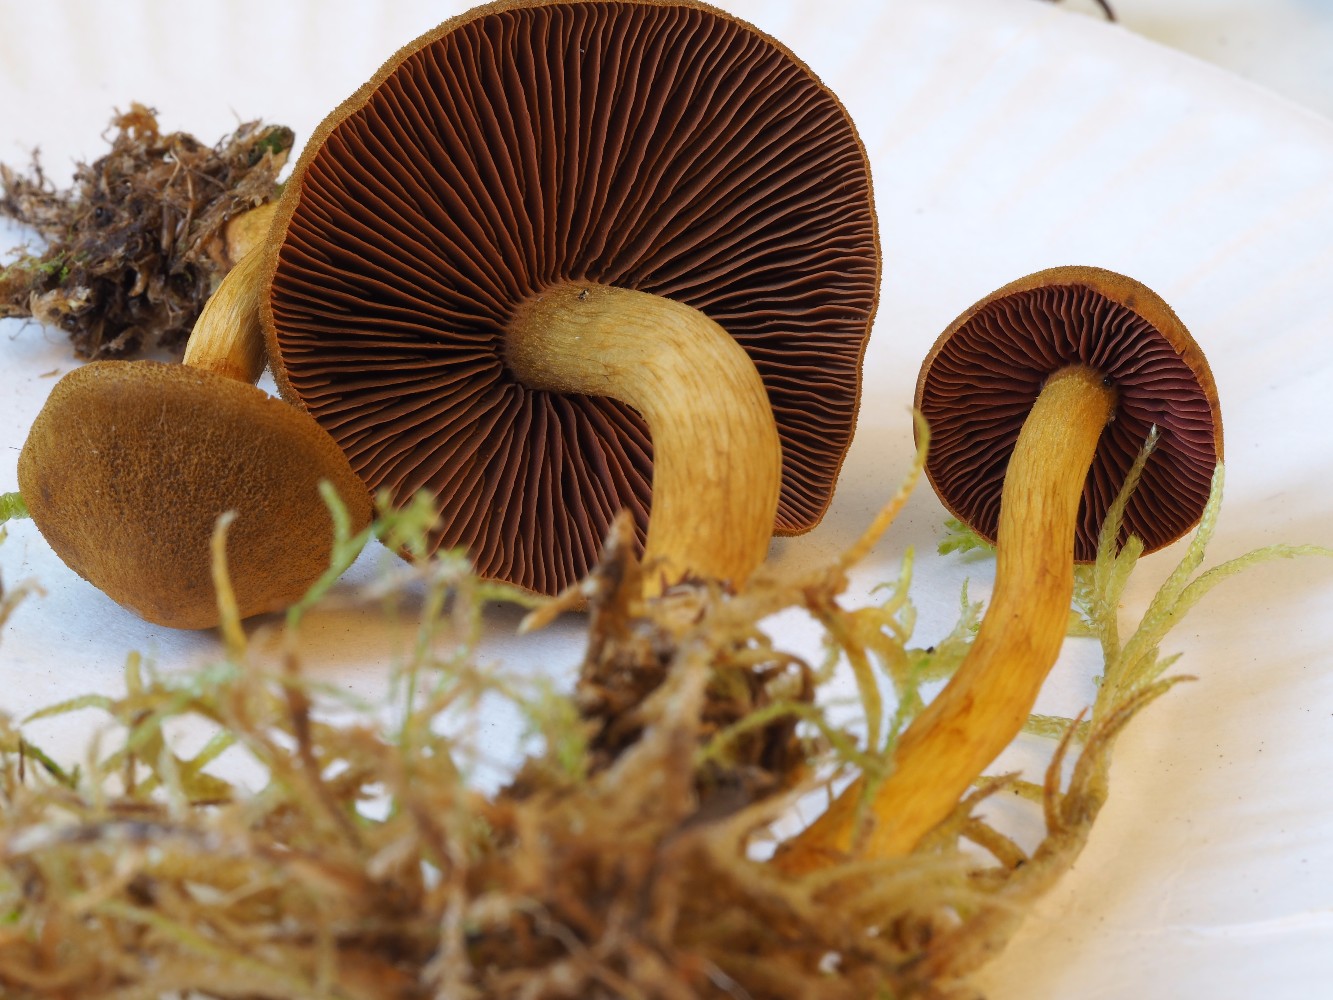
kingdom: Fungi
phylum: Basidiomycota
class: Agaricomycetes
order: Agaricales
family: Cortinariaceae
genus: Cortinarius
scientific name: Cortinarius
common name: cinnoberbladet slørhat
